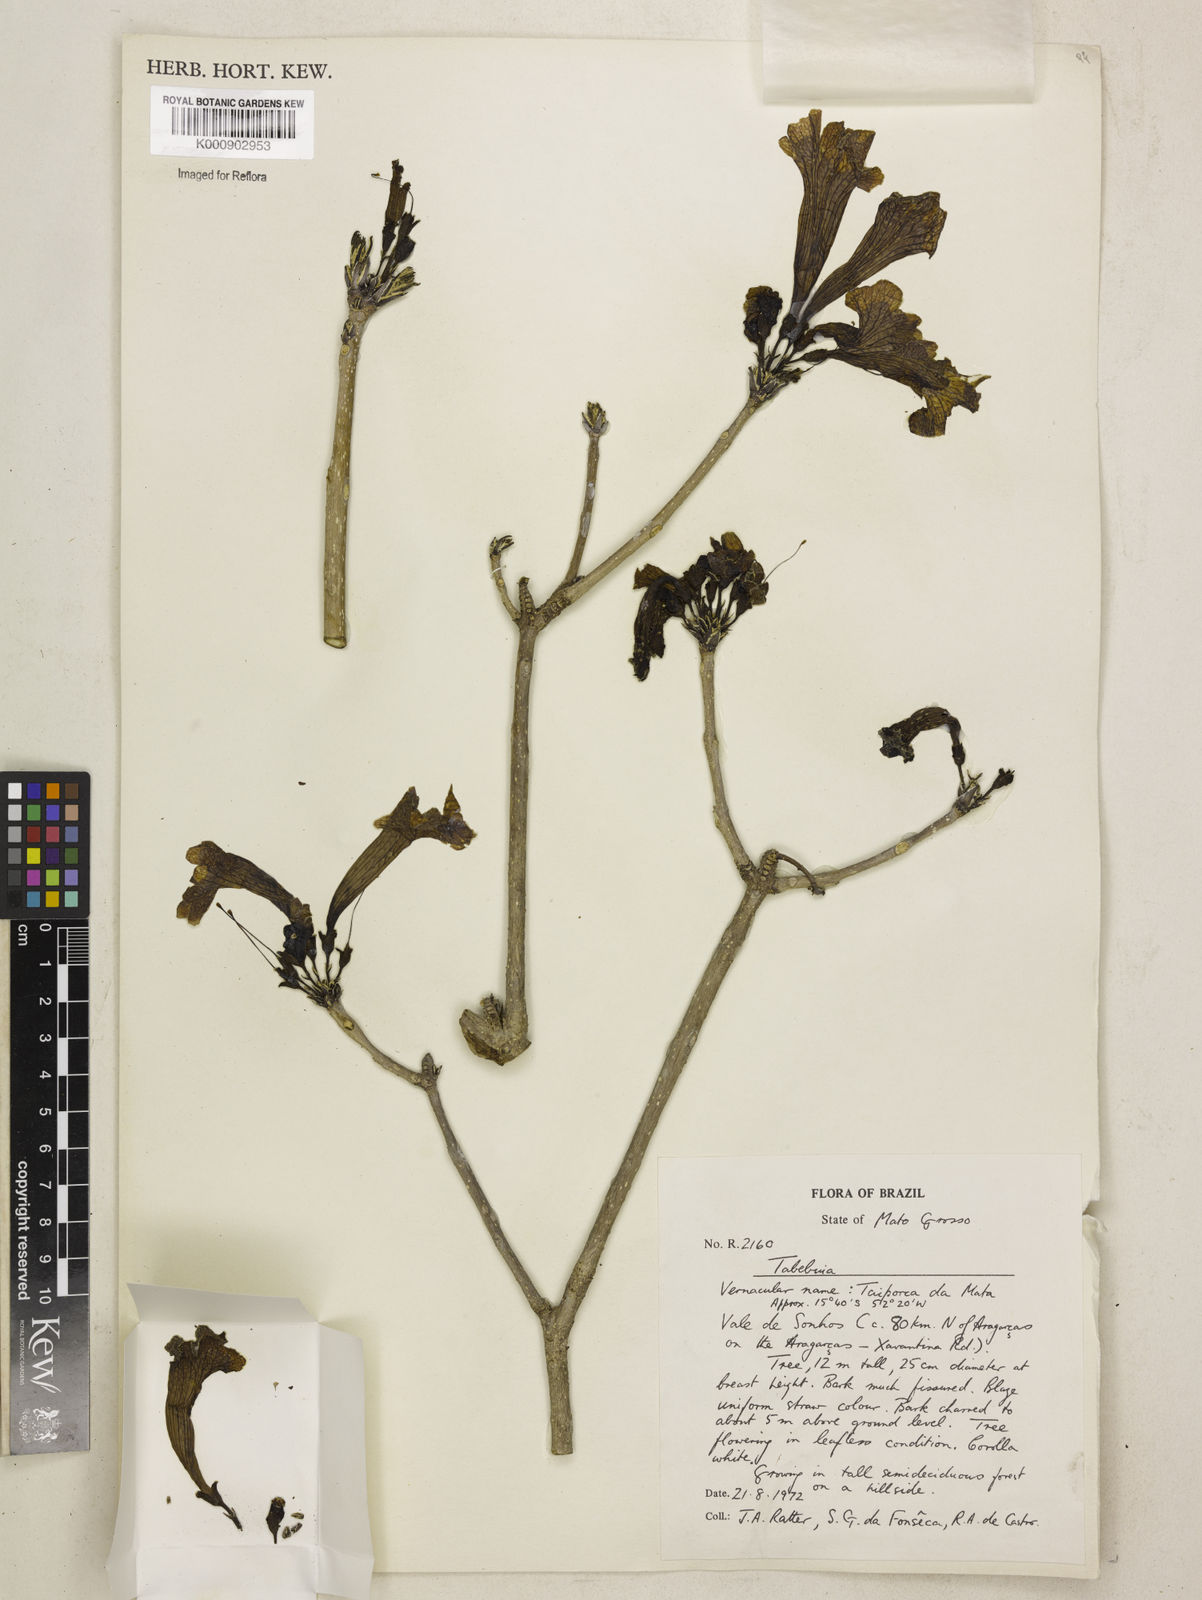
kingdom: Plantae
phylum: Tracheophyta
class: Magnoliopsida
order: Lamiales
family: Bignoniaceae
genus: Tabebuia
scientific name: Tabebuia
